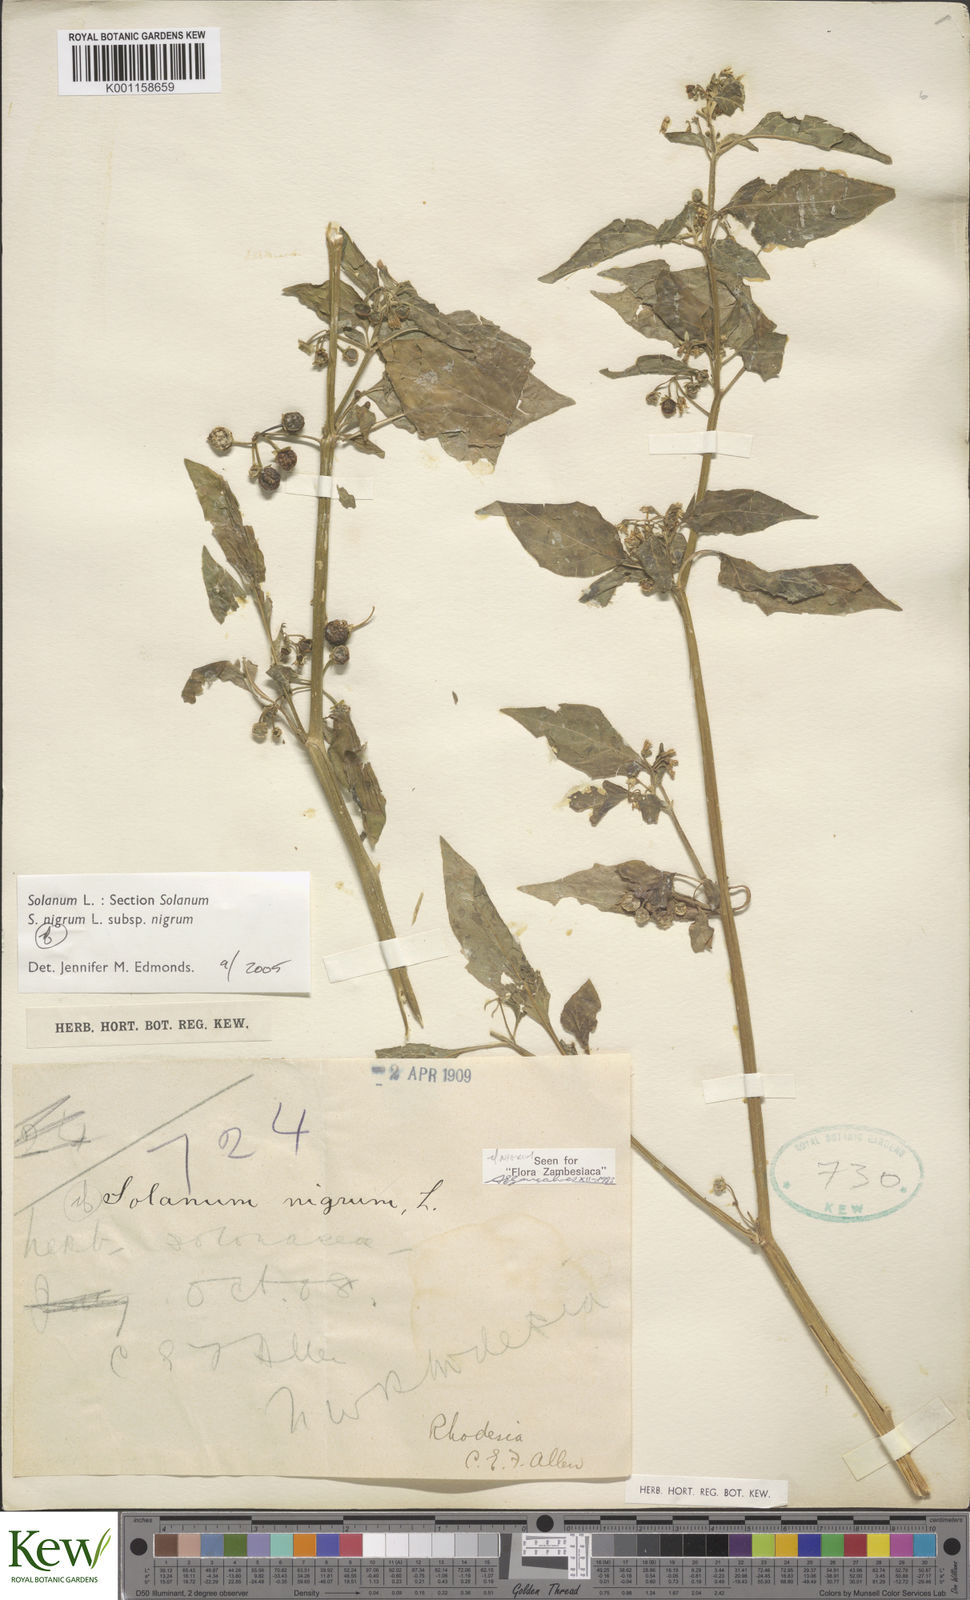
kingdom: Plantae
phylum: Tracheophyta
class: Magnoliopsida
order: Solanales
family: Solanaceae
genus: Solanum
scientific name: Solanum nigrum
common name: Black nightshade
